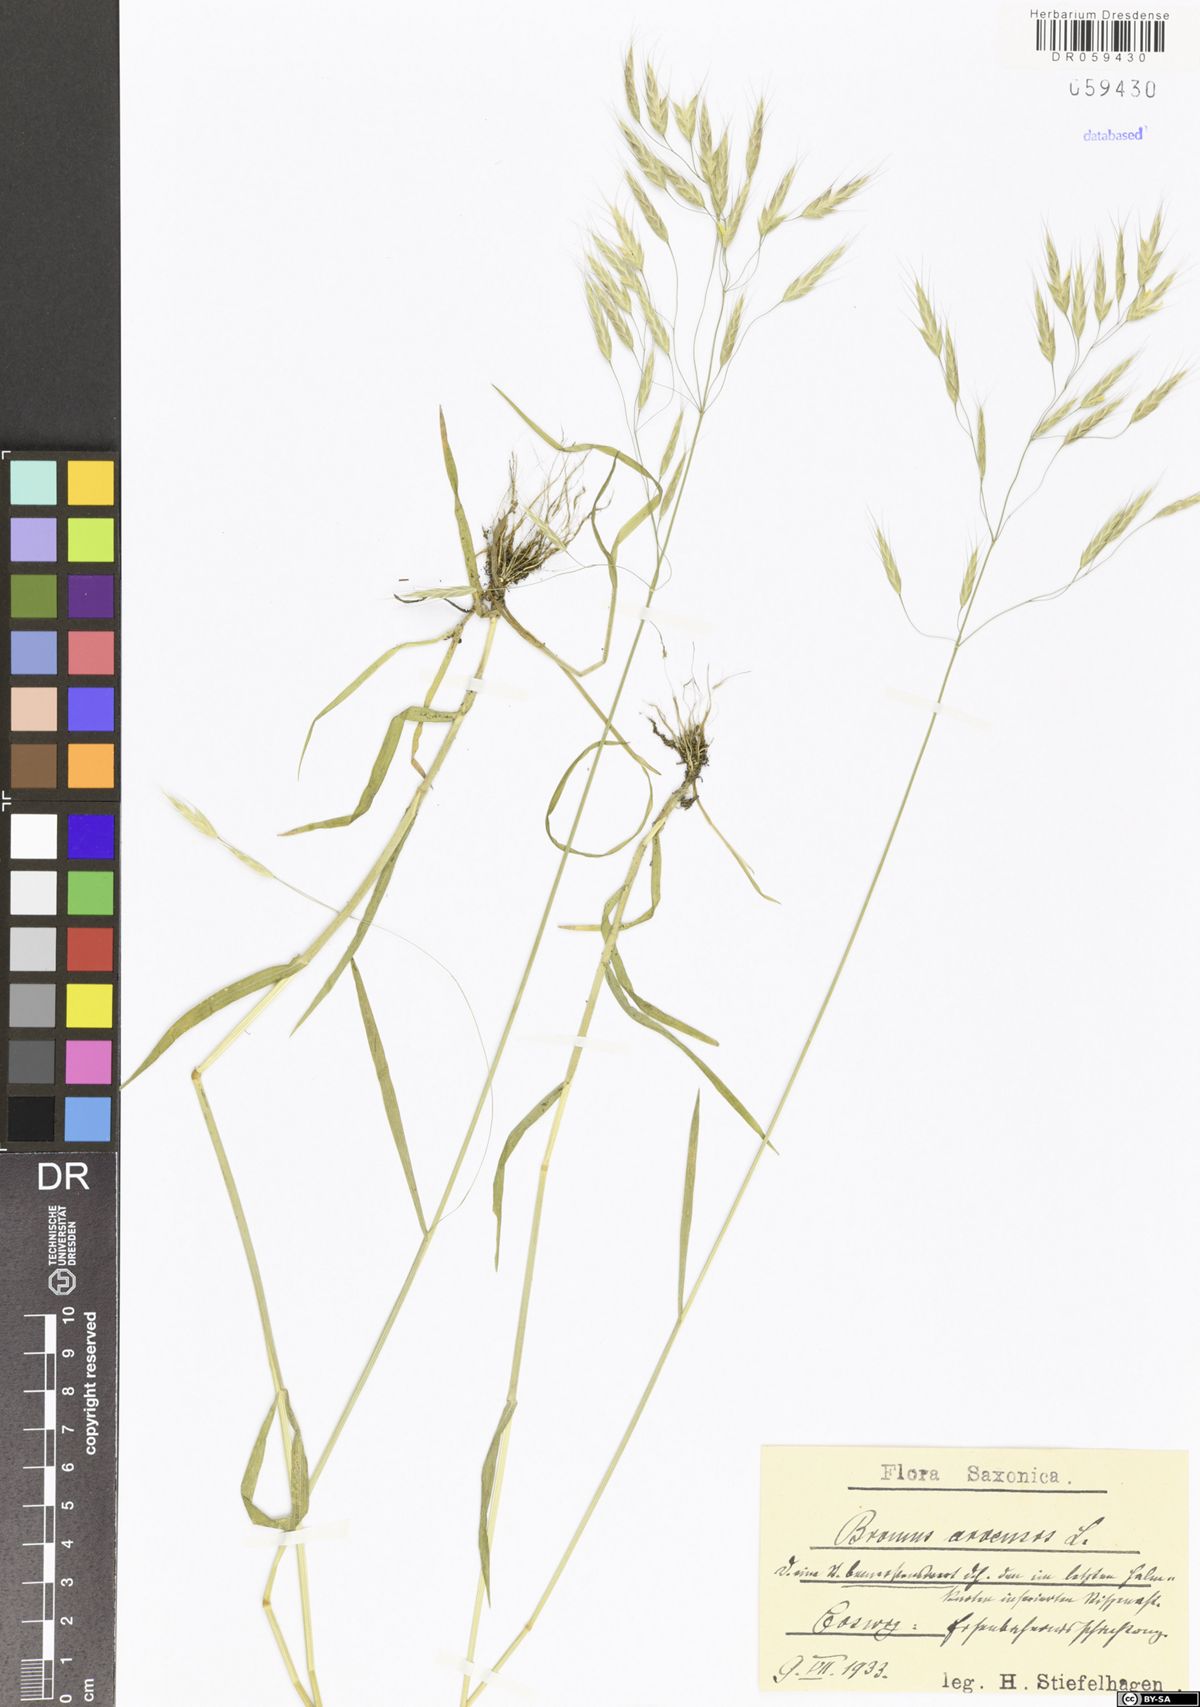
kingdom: Plantae
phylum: Tracheophyta
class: Liliopsida
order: Poales
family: Poaceae
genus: Bromus
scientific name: Bromus arvensis
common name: Field brome
